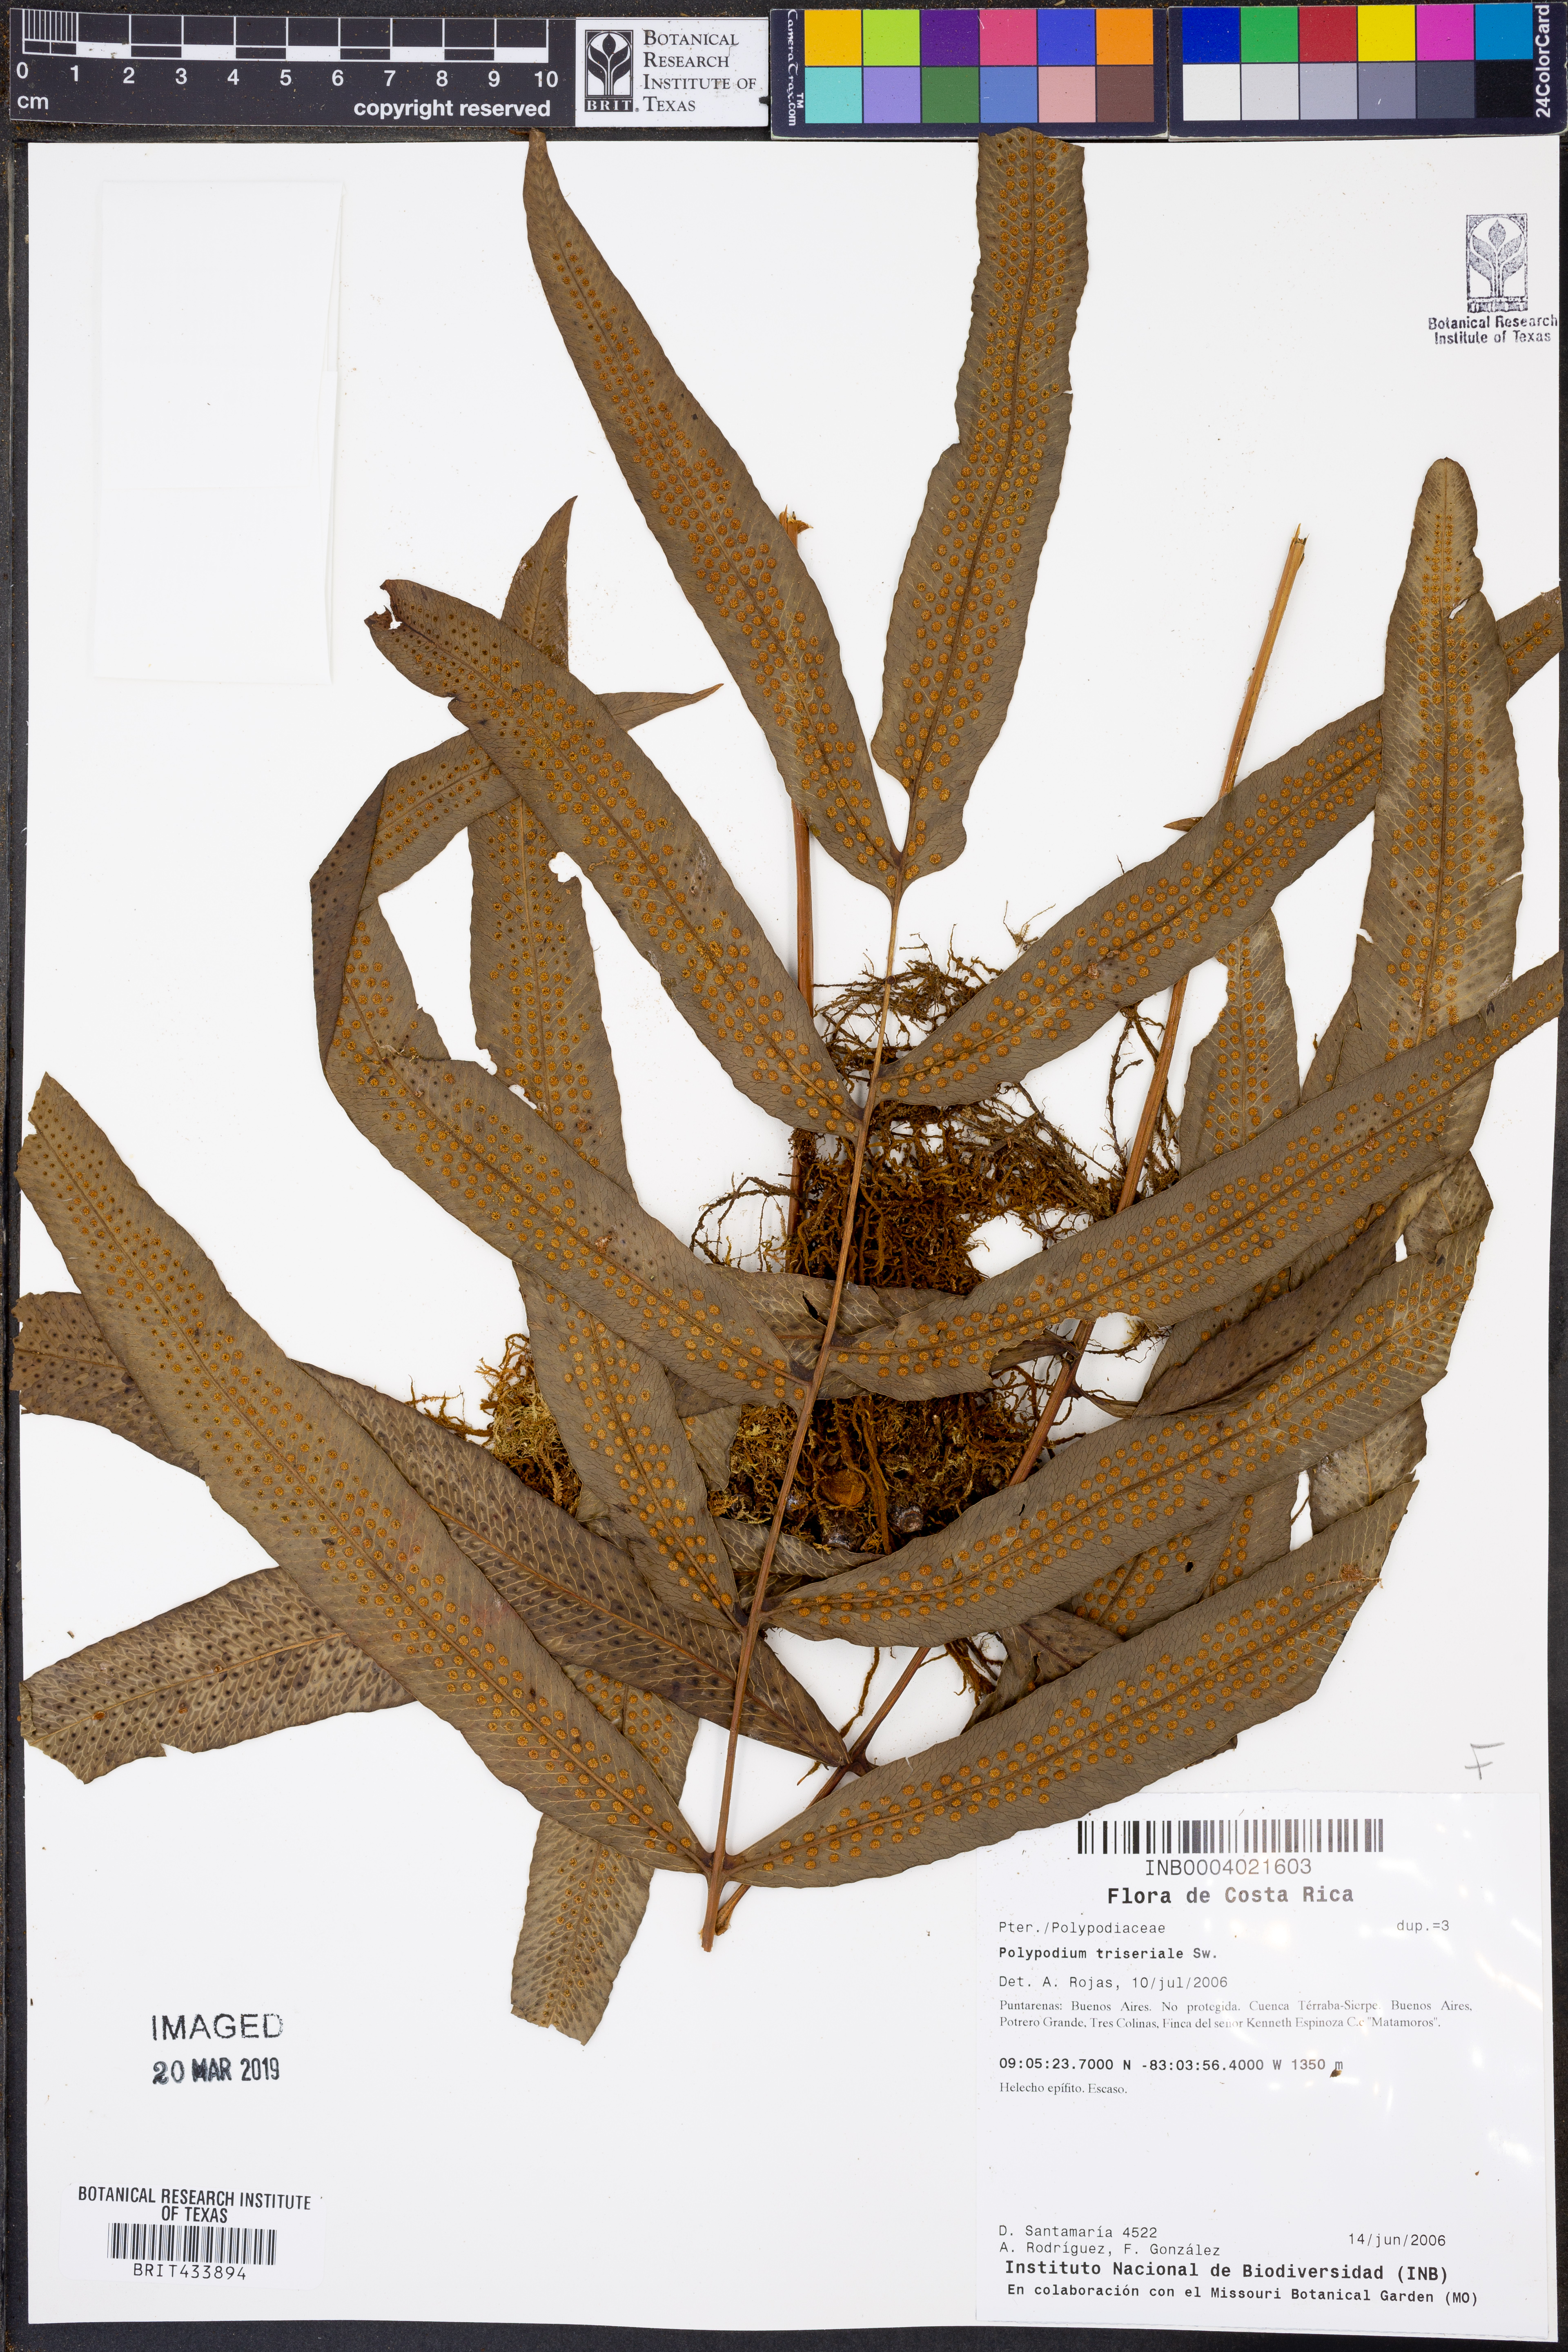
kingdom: Plantae
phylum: Tracheophyta
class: Polypodiopsida
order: Polypodiales
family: Polypodiaceae
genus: Serpocaulon
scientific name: Serpocaulon triseriale
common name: Angle-vein fern
